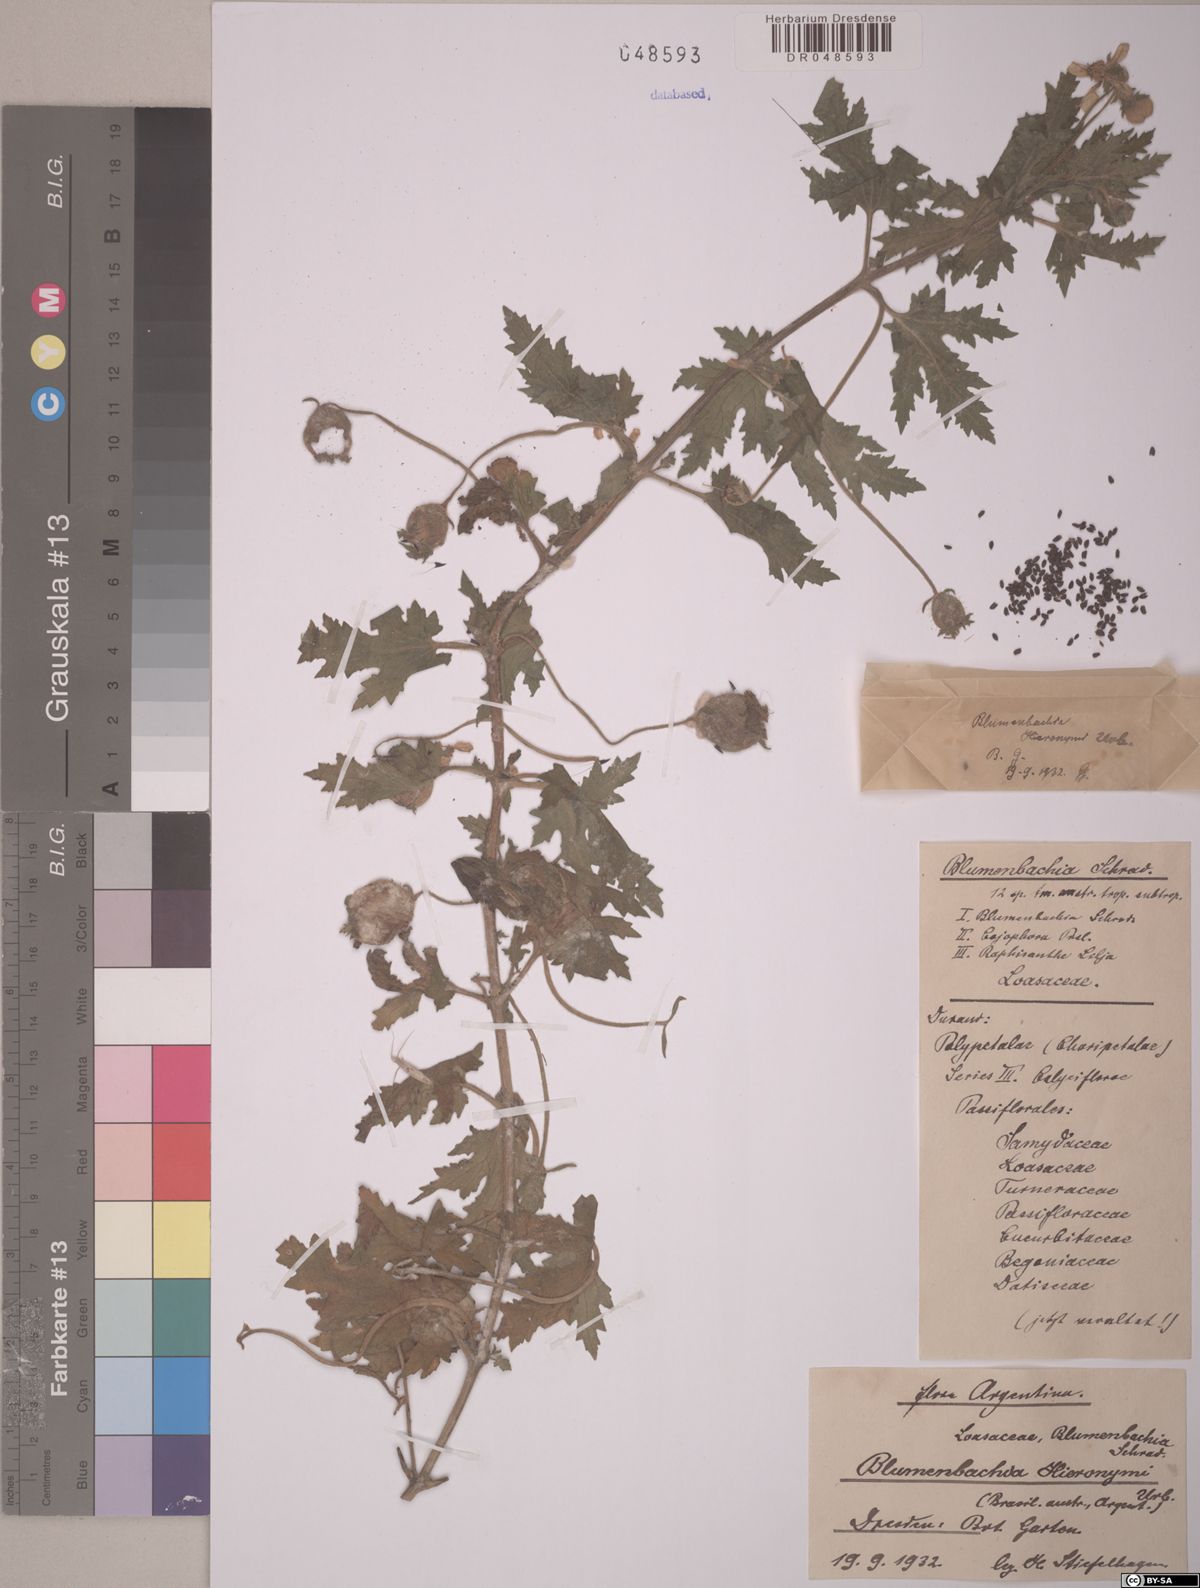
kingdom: Plantae
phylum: Tracheophyta
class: Magnoliopsida
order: Cornales
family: Loasaceae
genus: Blumenbachia
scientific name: Blumenbachia hieronymi
